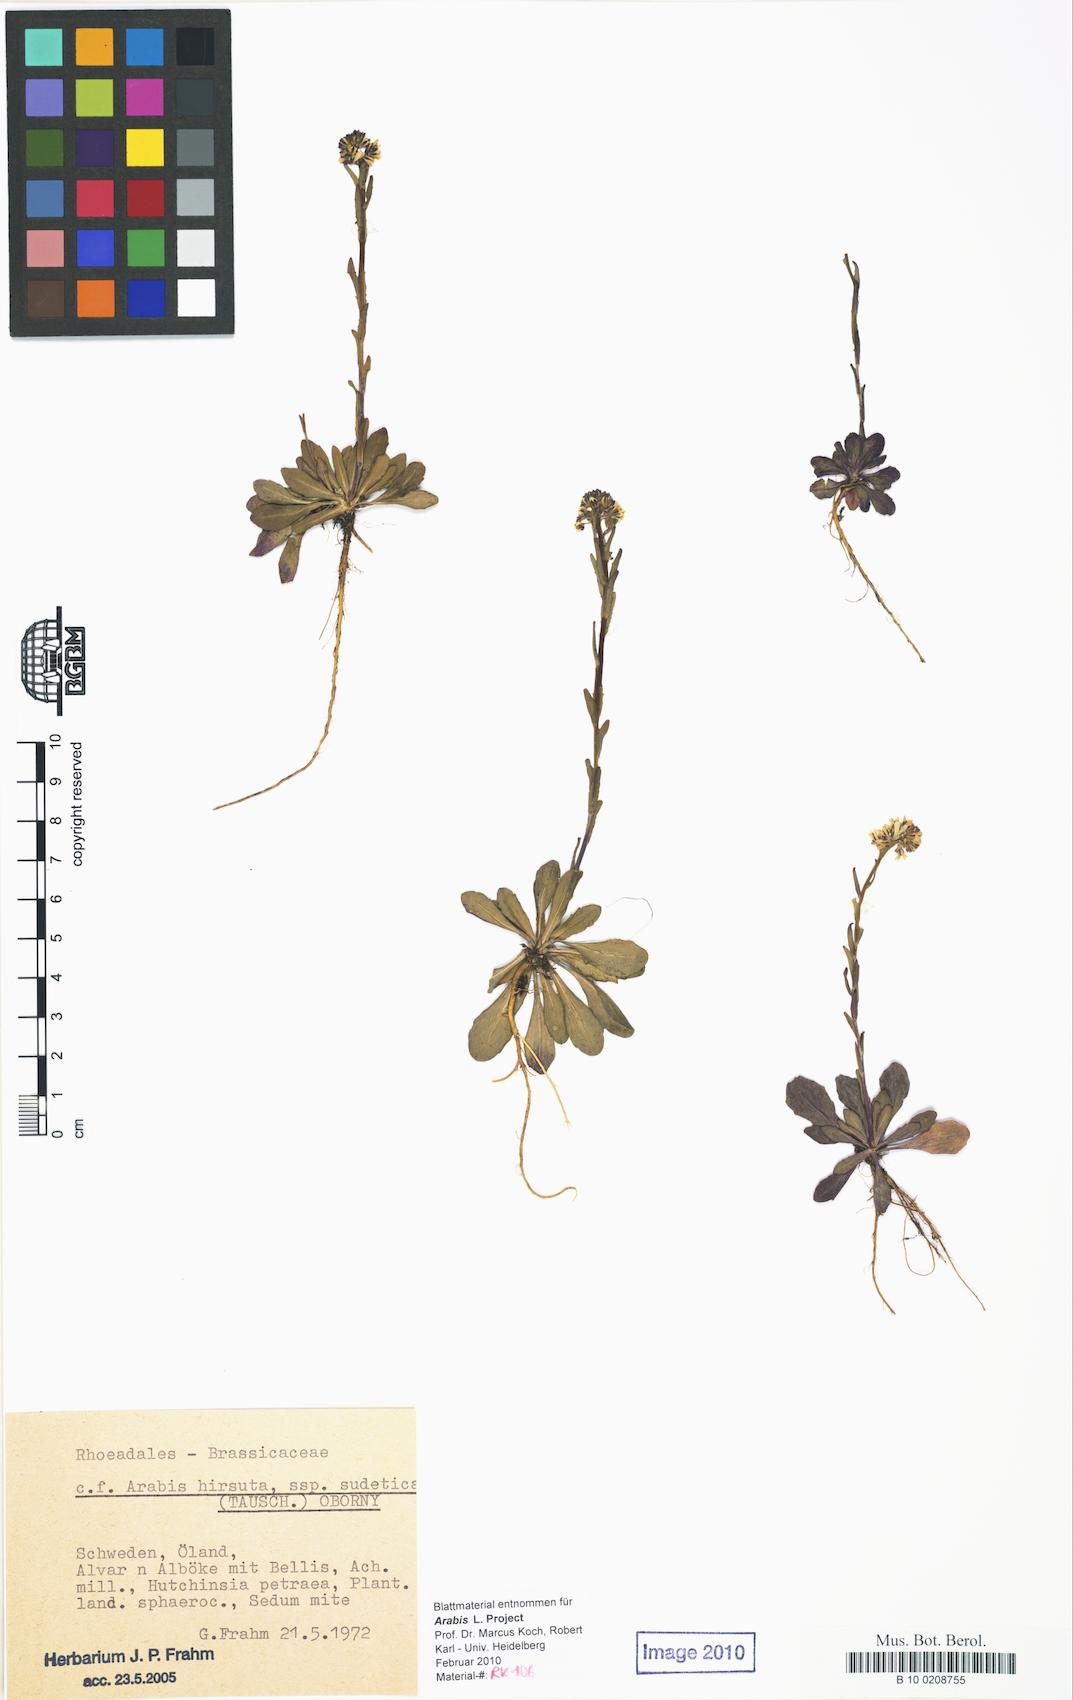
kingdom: Plantae
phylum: Tracheophyta
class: Magnoliopsida
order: Brassicales
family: Brassicaceae
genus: Arabis
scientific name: Arabis allionii
